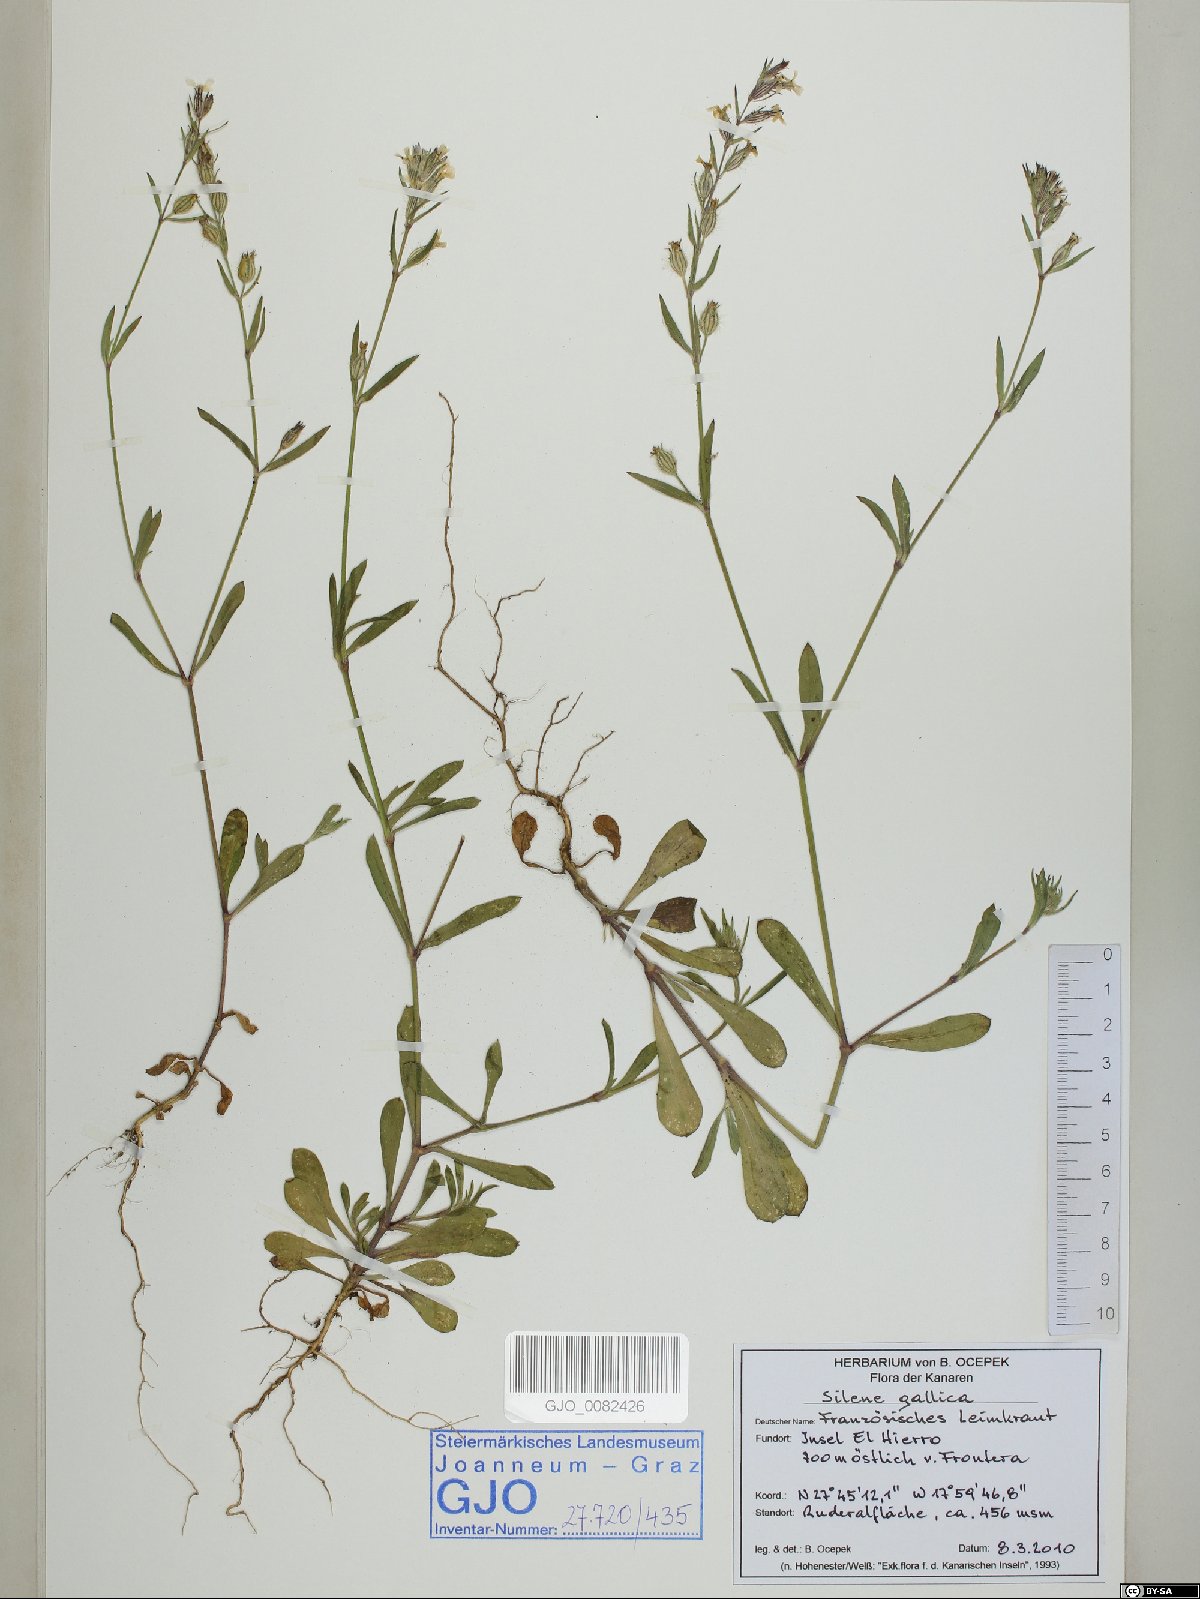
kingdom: Plantae
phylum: Tracheophyta
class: Magnoliopsida
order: Caryophyllales
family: Caryophyllaceae
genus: Silene
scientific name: Silene gallica
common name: Small-flowered catchfly
